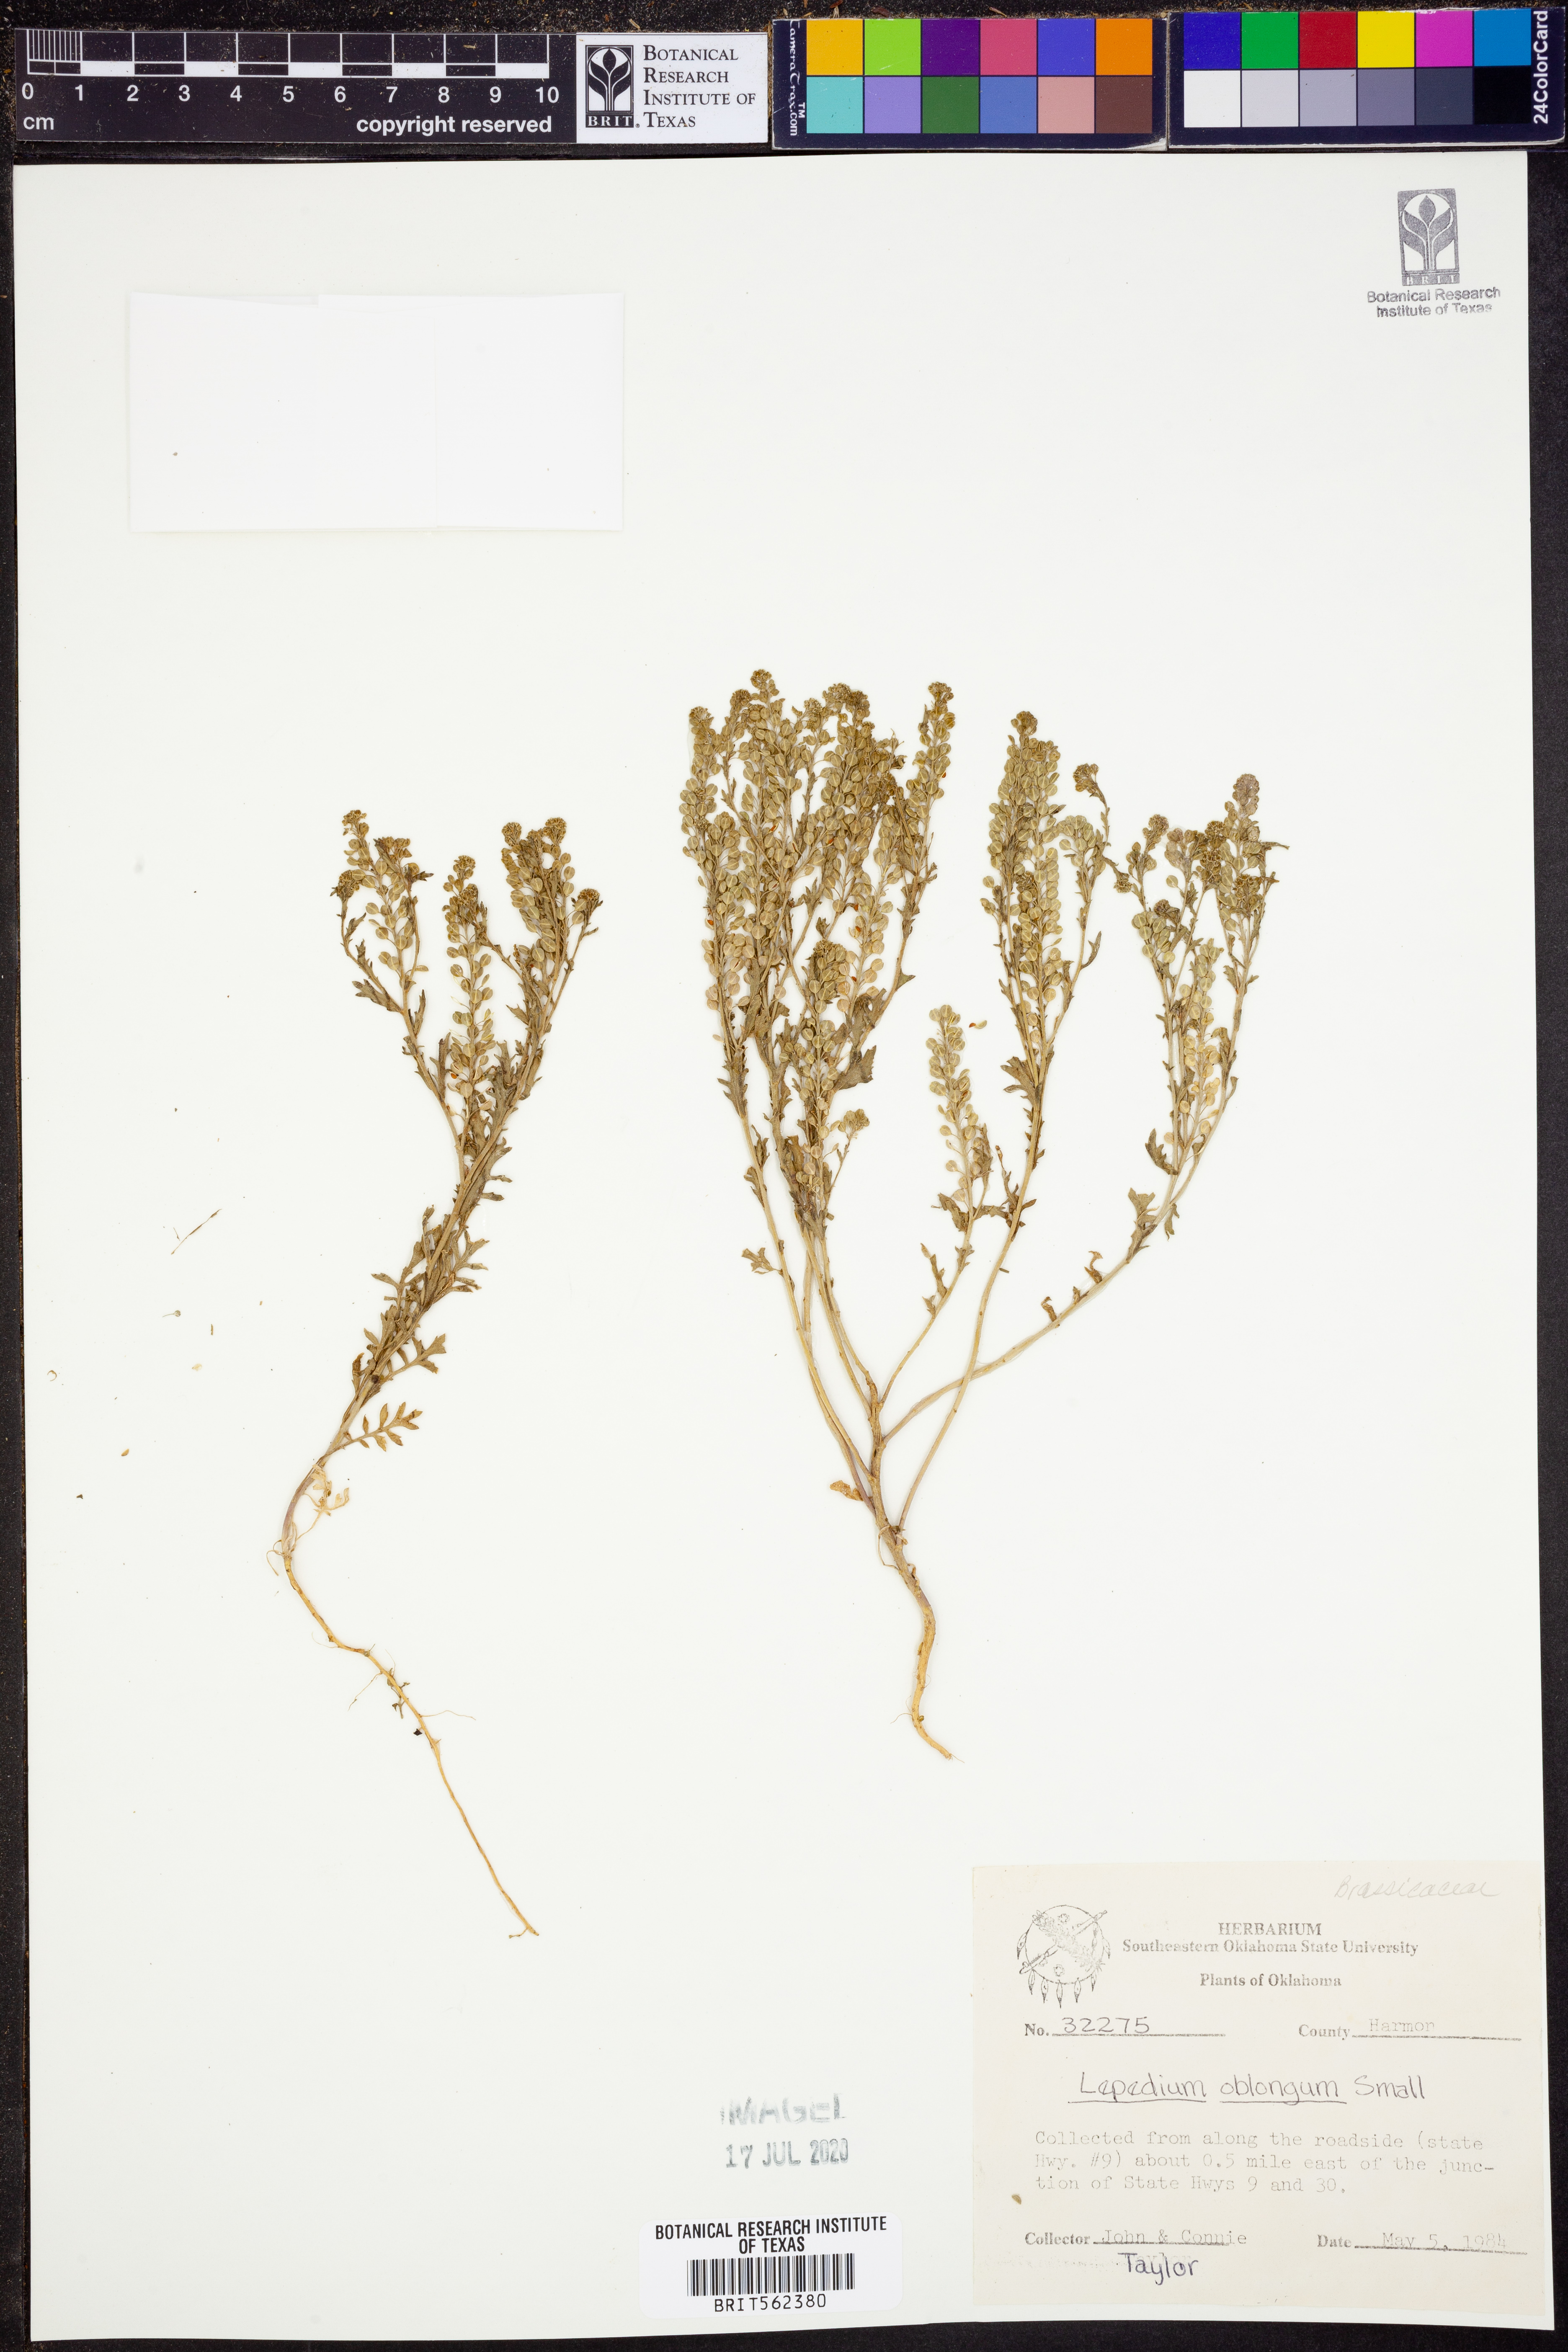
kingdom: Plantae
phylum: Tracheophyta
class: Magnoliopsida
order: Brassicales
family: Brassicaceae
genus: Lepidium
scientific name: Lepidium oblongum
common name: Veiny pepperweed
